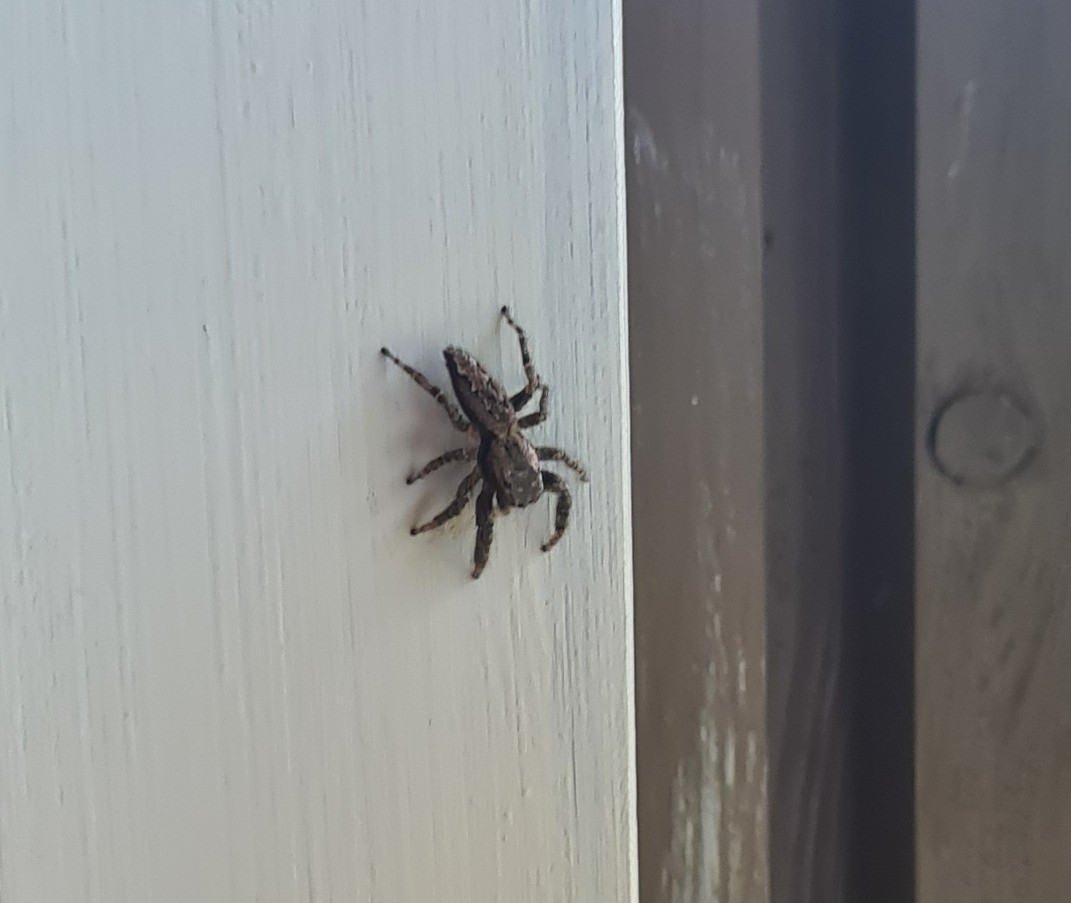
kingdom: Animalia
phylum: Arthropoda
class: Arachnida
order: Araneae
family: Salticidae
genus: Marpissa
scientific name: Marpissa muscosa
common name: Stor springedderkop
